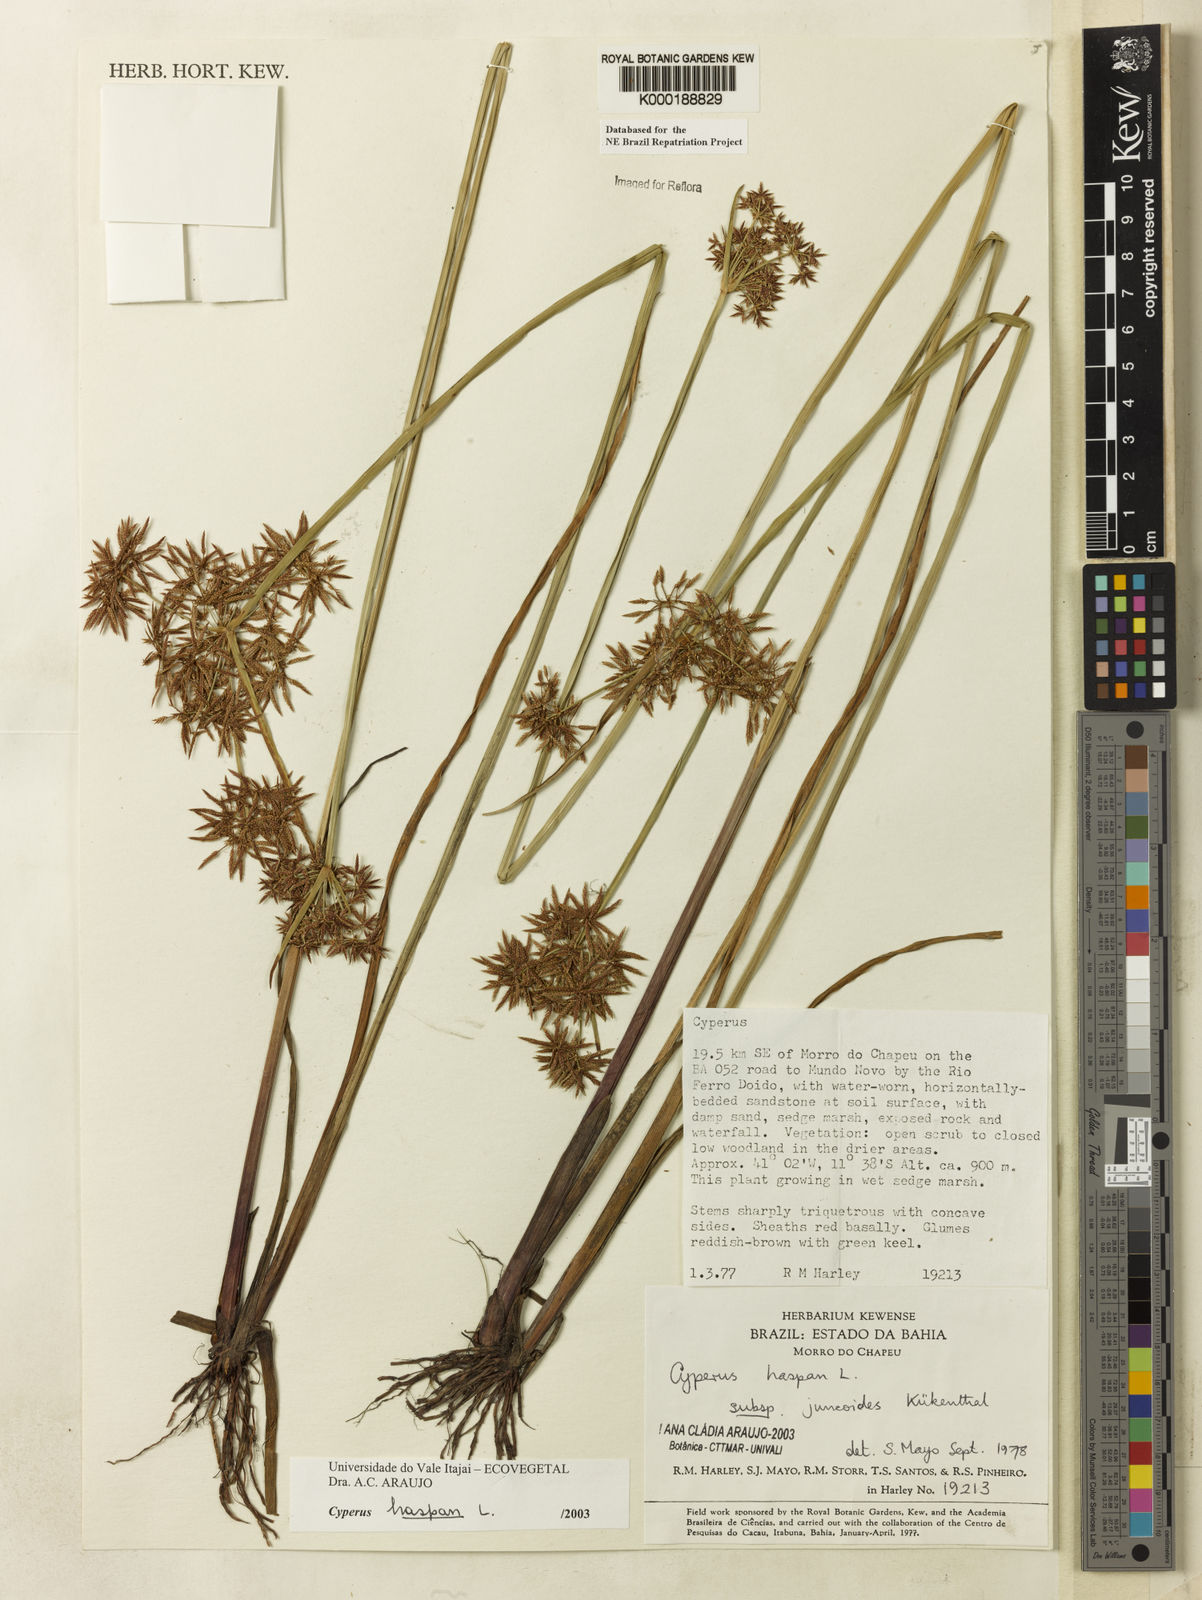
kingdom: Plantae
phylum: Tracheophyta
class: Liliopsida
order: Poales
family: Cyperaceae
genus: Cyperus
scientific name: Cyperus haspan
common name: Haspan flatsedge
